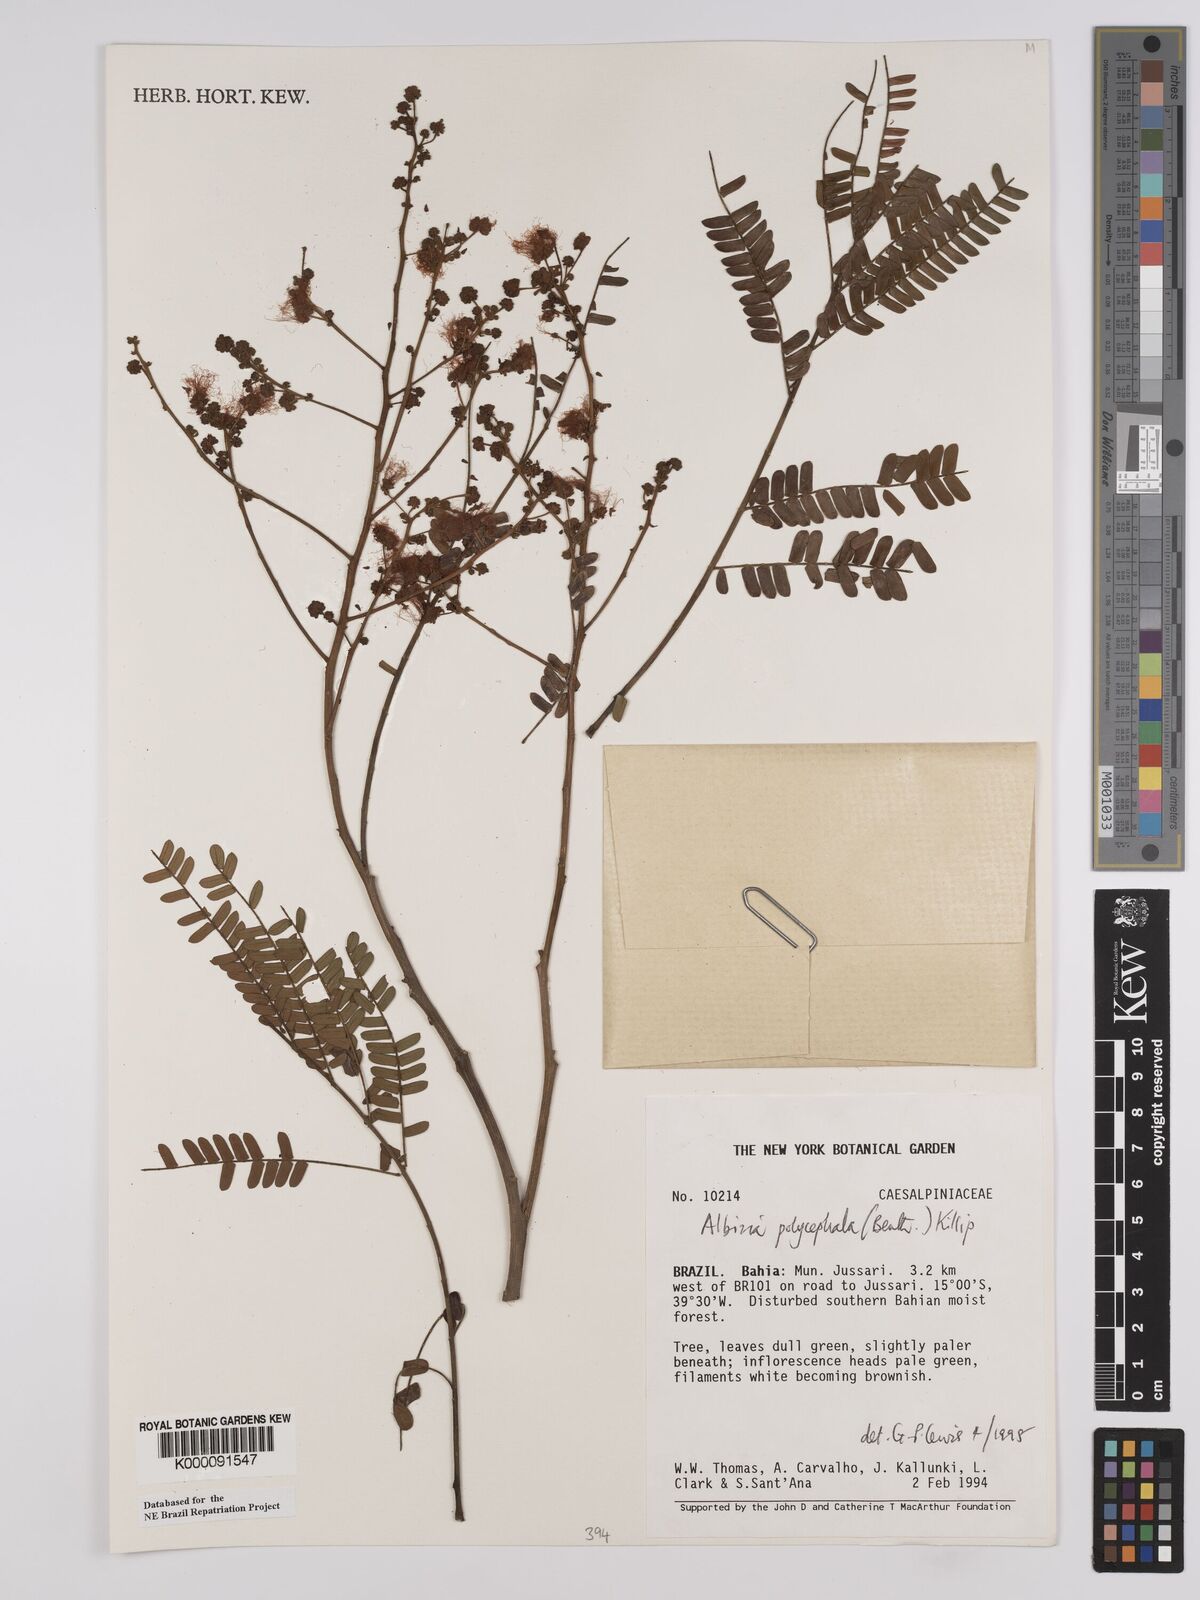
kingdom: Plantae
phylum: Tracheophyta
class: Magnoliopsida
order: Fabales
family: Fabaceae
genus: Albizia
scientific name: Albizia polycephala
